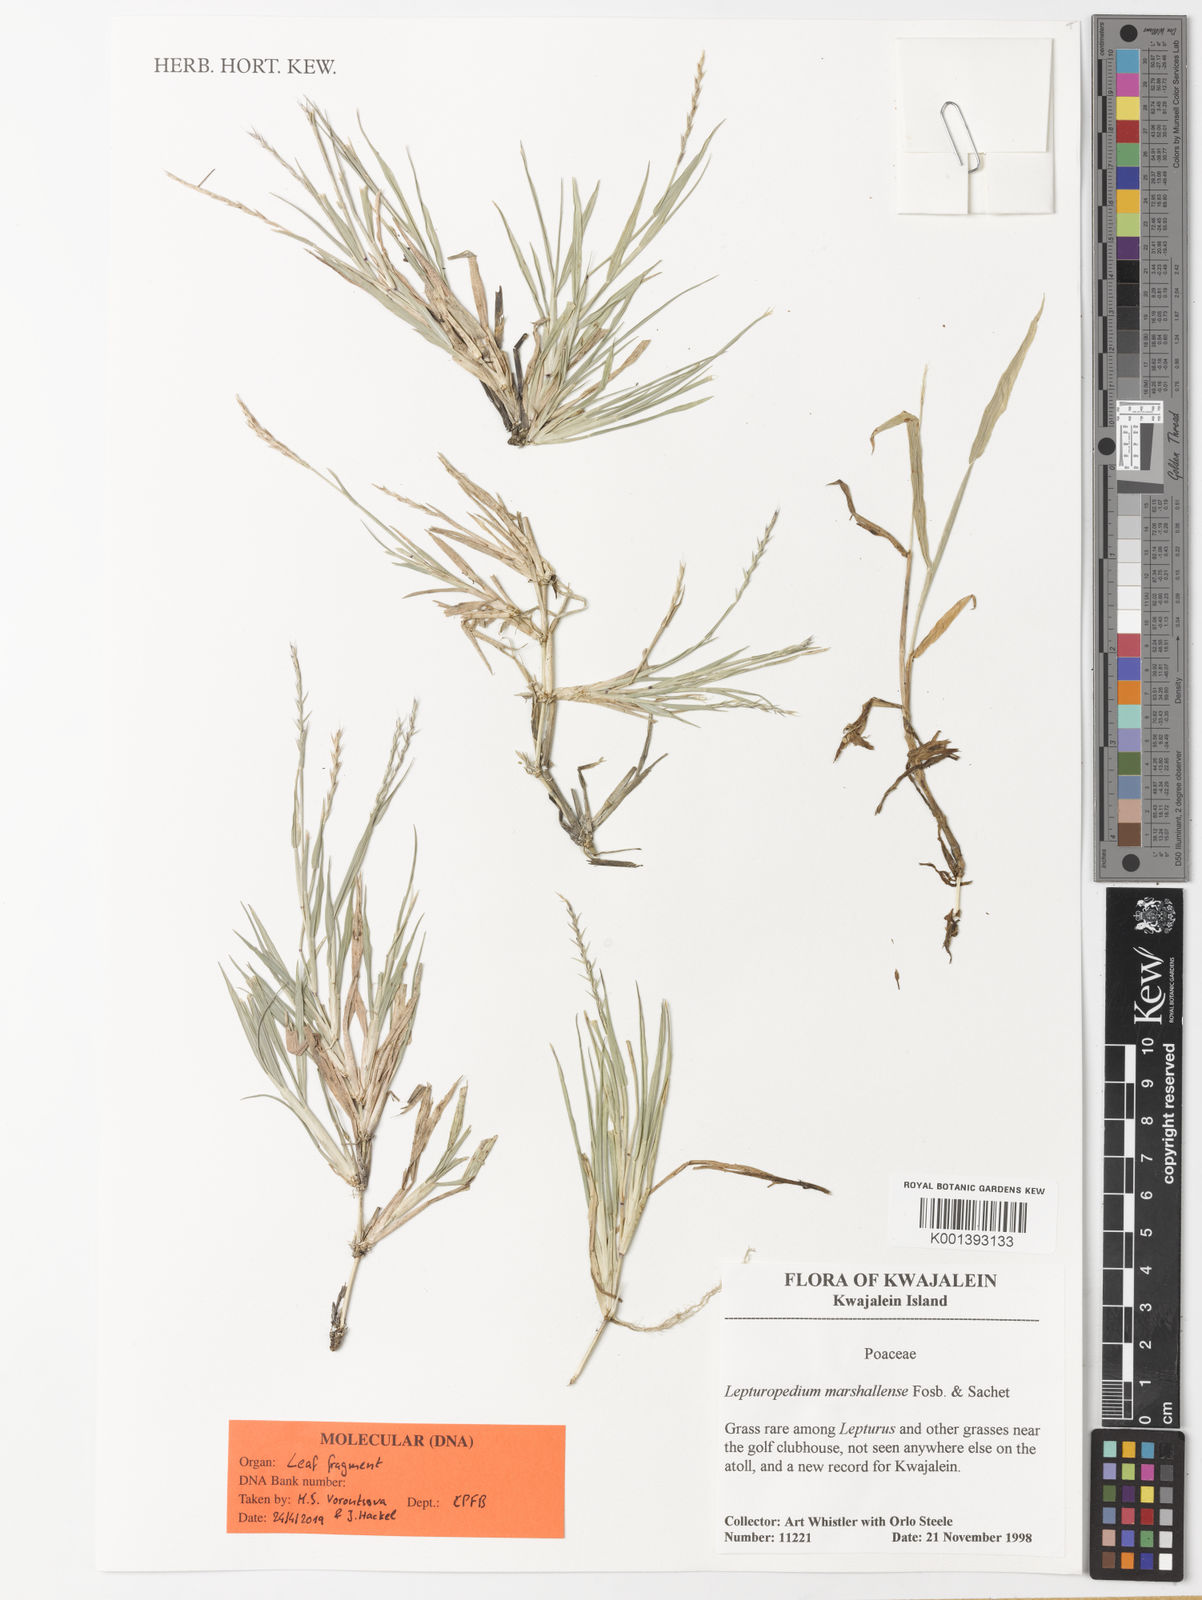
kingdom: Plantae
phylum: Tracheophyta
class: Liliopsida
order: Poales
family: Poaceae
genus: Lepturopetium
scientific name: Lepturopetium marshallense
